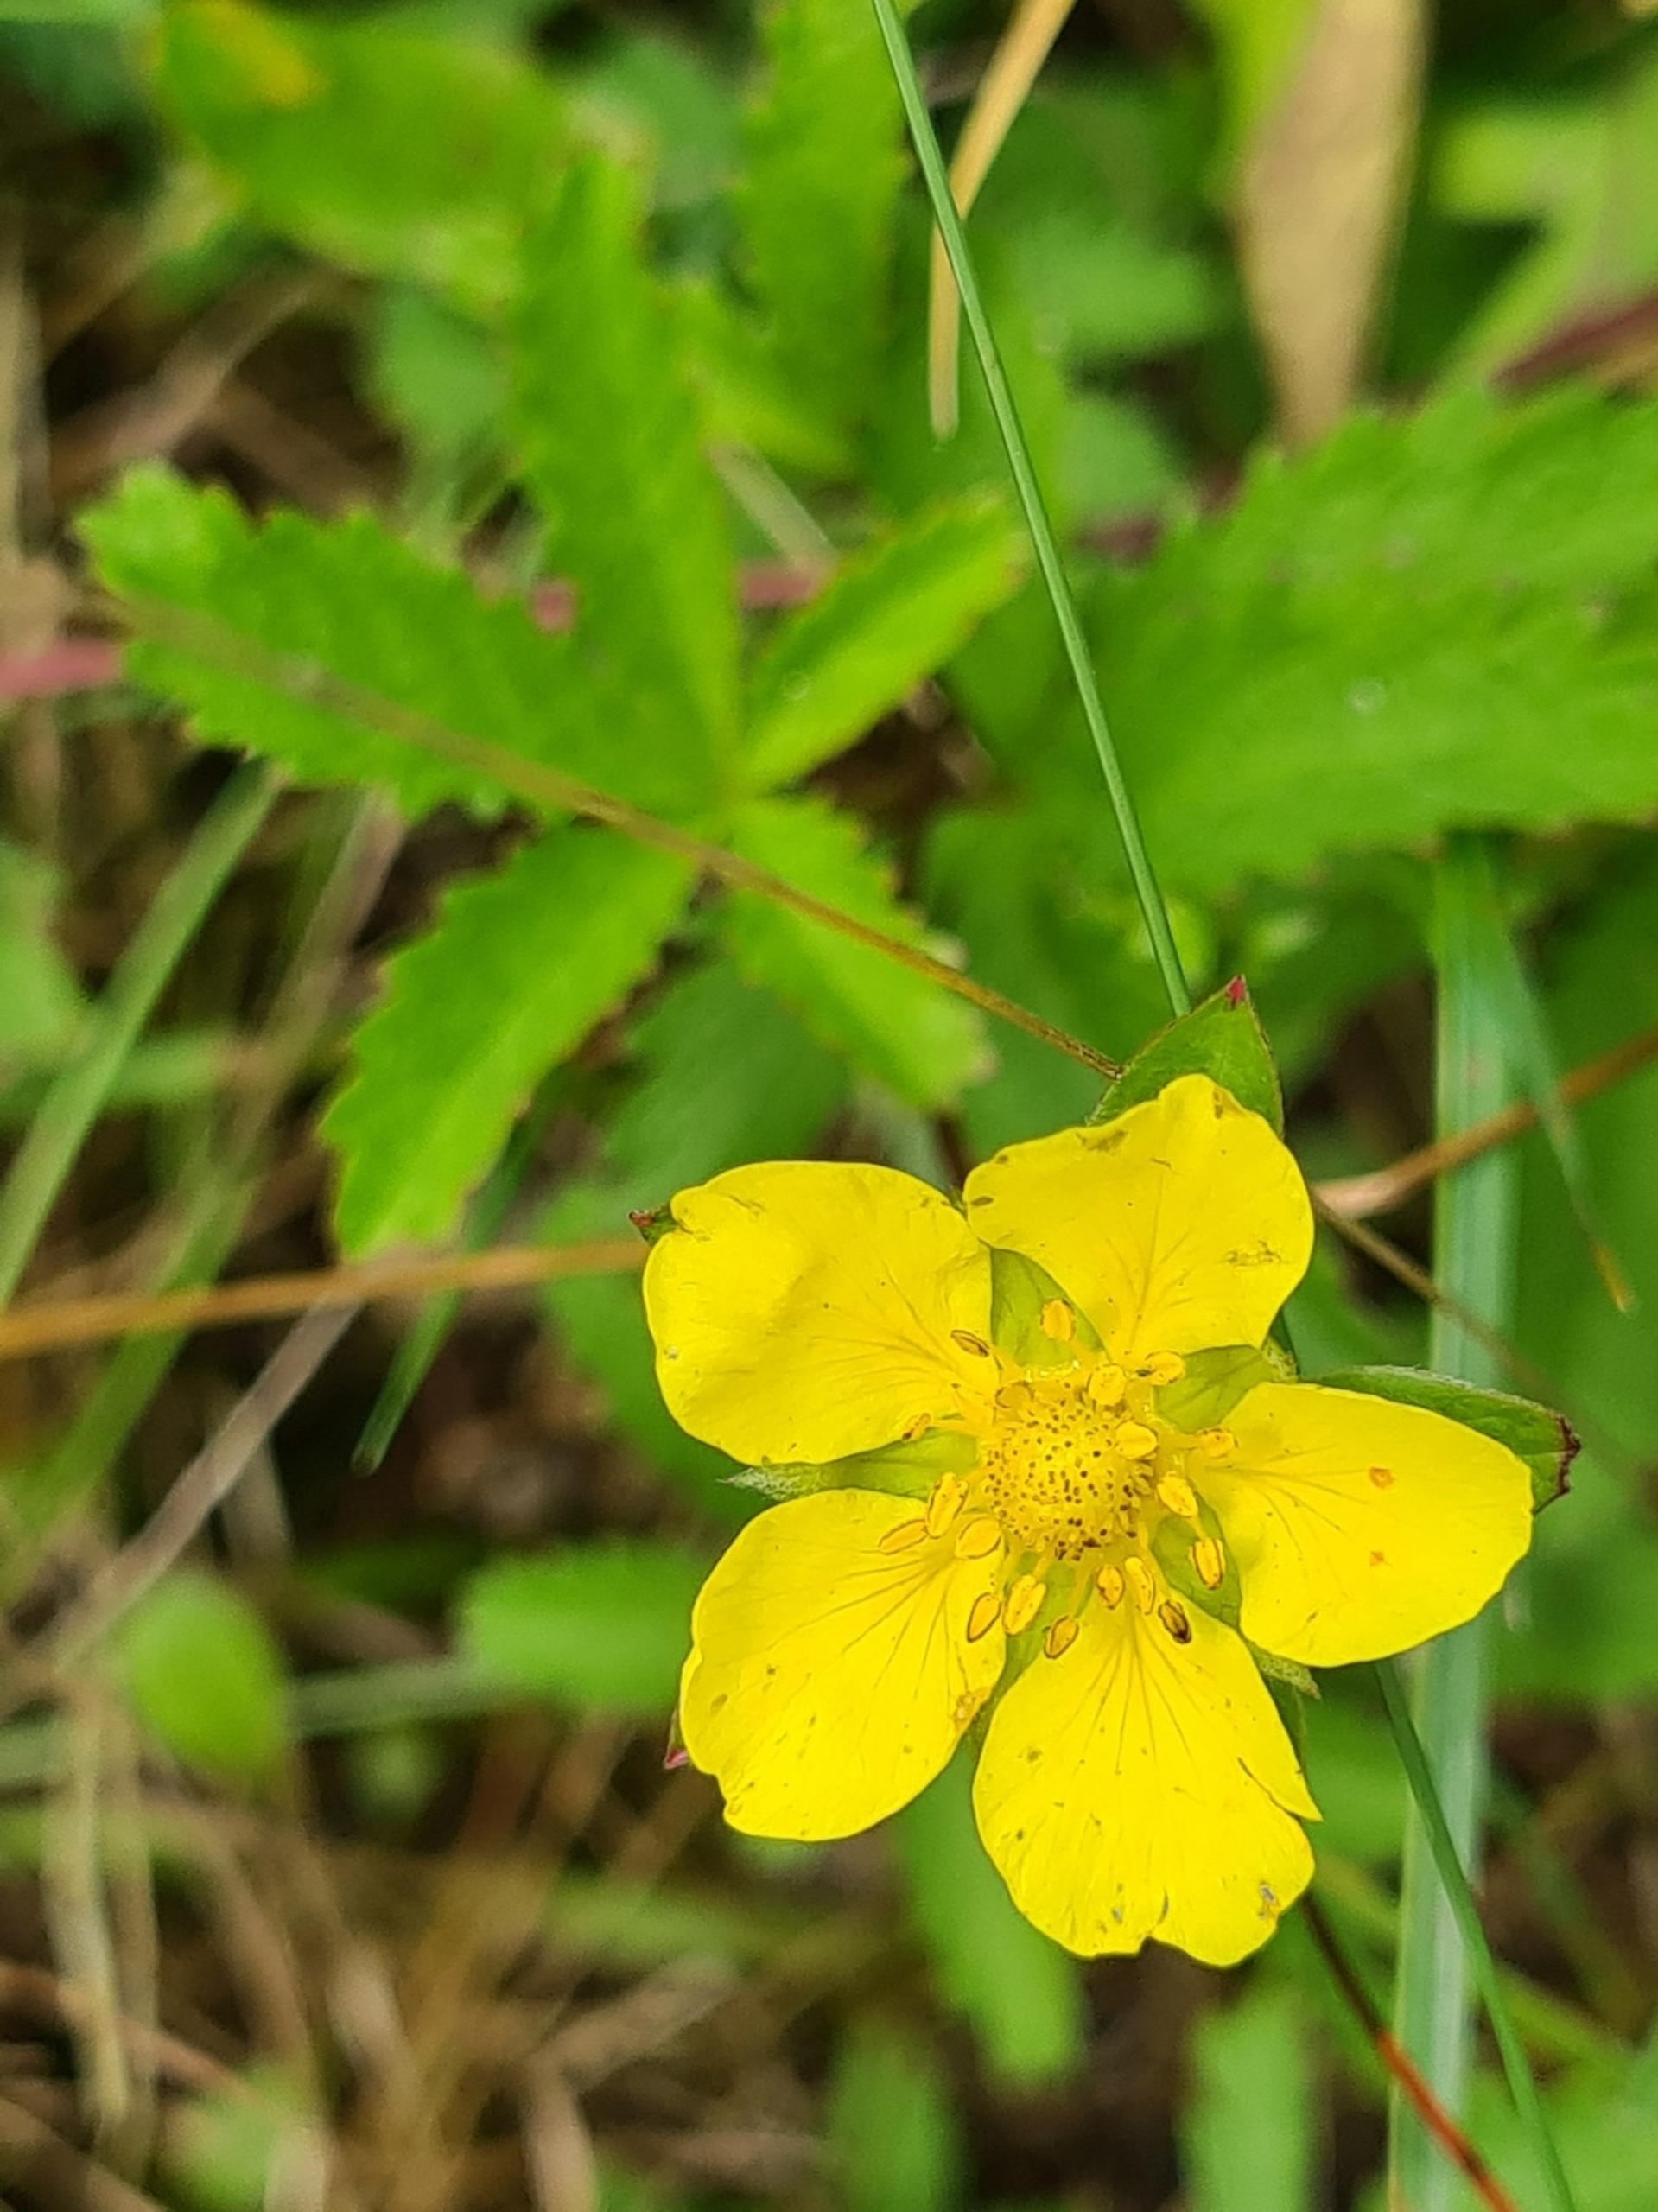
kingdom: Plantae
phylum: Tracheophyta
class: Magnoliopsida
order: Rosales
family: Rosaceae
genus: Potentilla
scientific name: Potentilla reptans
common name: Krybende potentil
